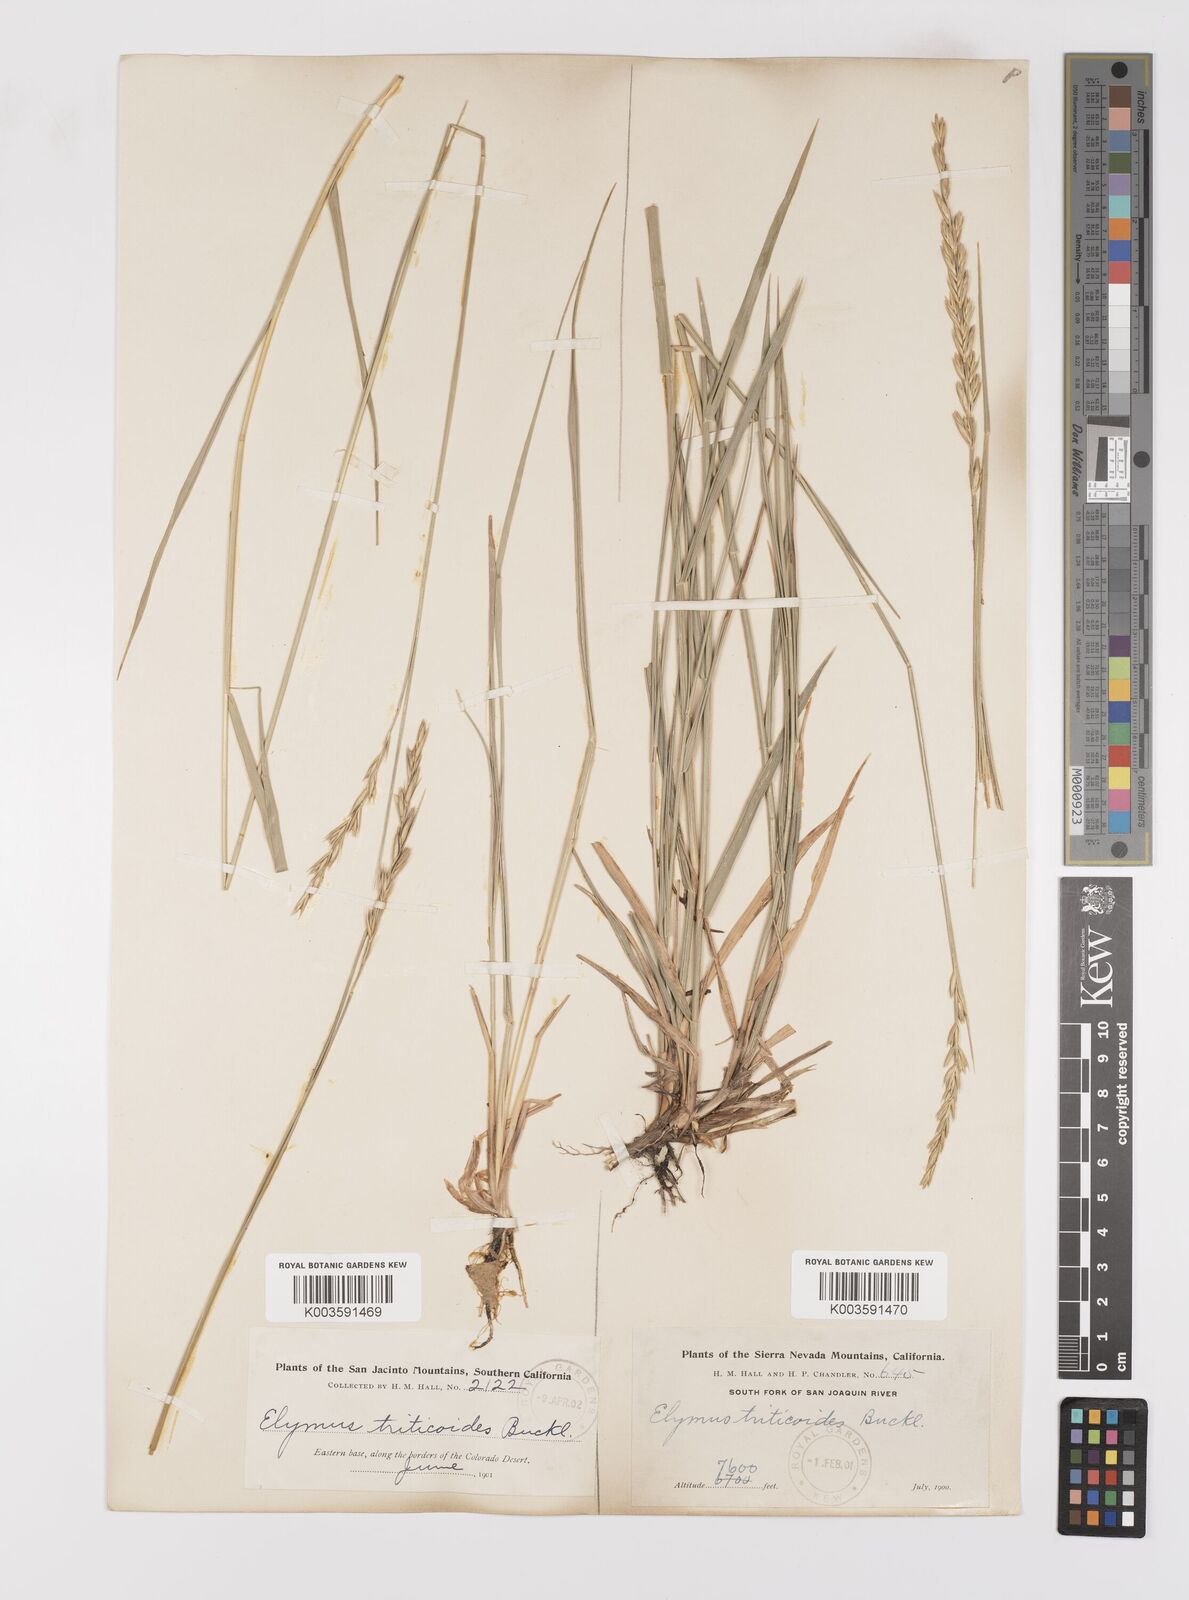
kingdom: Plantae
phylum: Tracheophyta
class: Liliopsida
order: Poales
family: Poaceae
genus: Leymus
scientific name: Leymus triticoides
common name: Beardless wild rye
